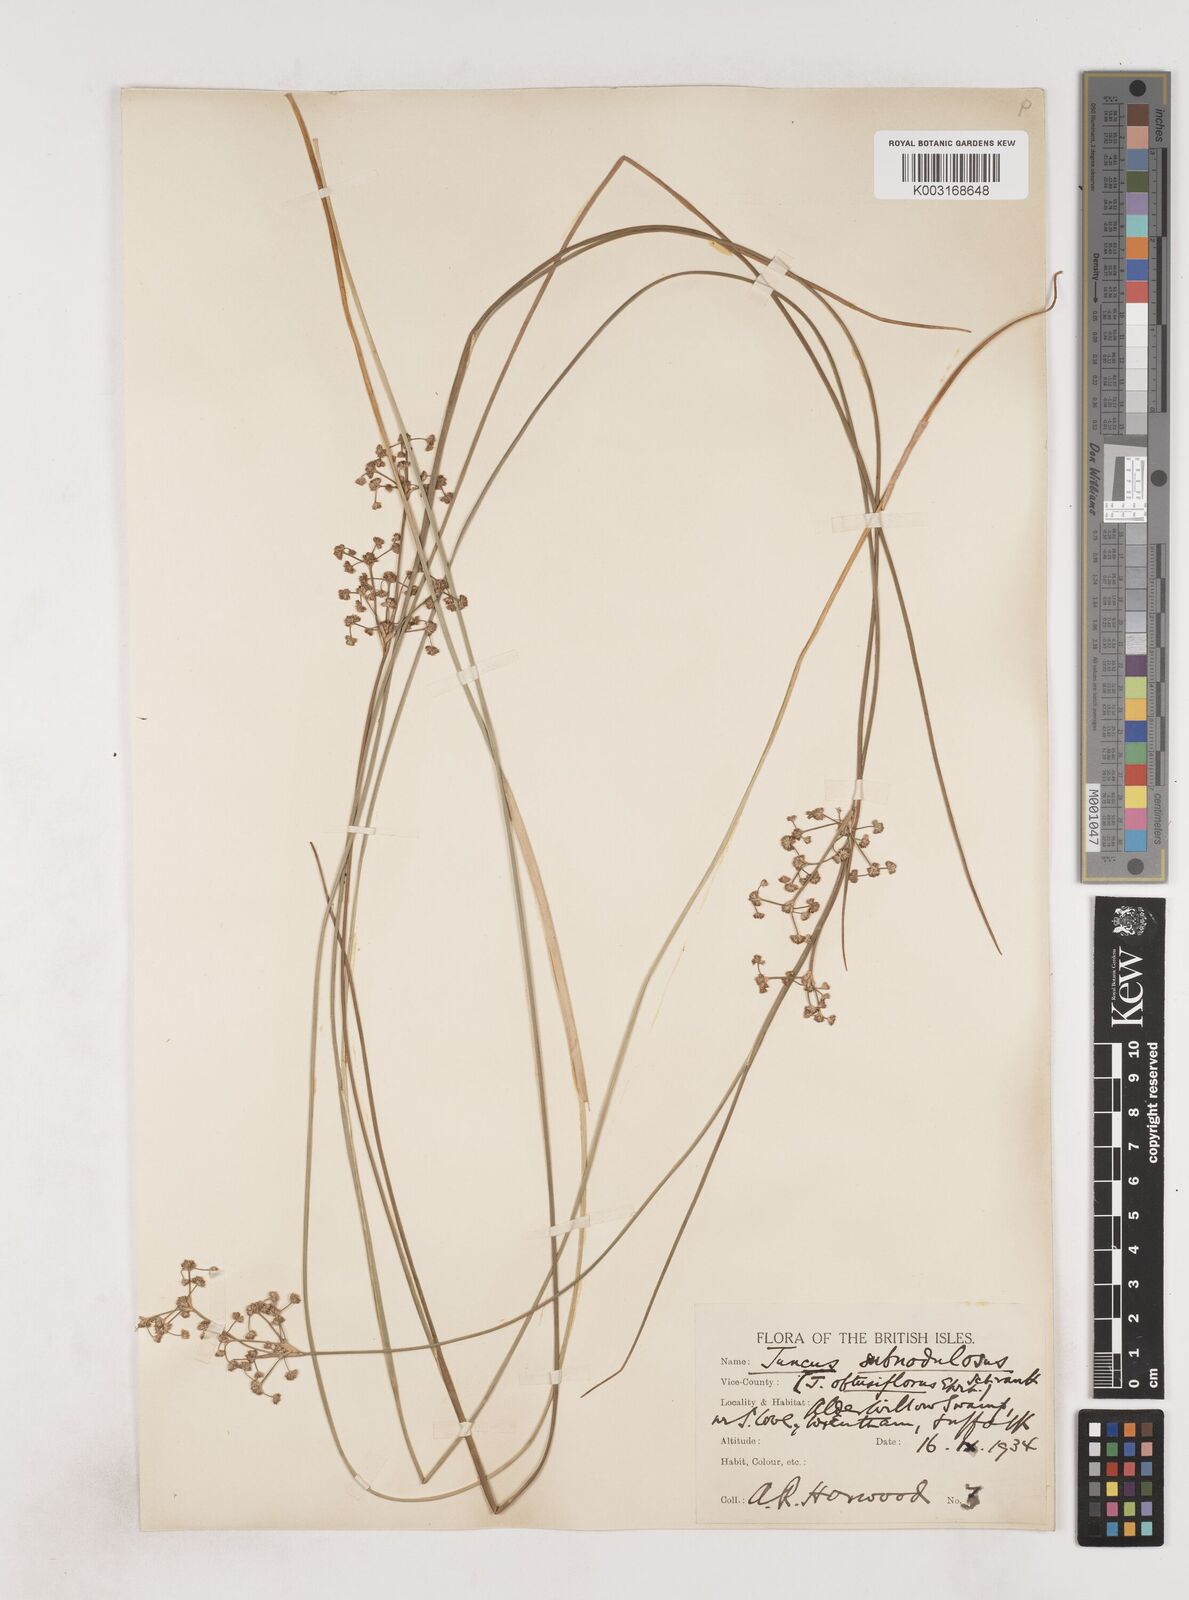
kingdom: Plantae
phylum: Tracheophyta
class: Liliopsida
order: Poales
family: Juncaceae
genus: Juncus
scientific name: Juncus subnodulosus
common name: Blunt-flowered rush
